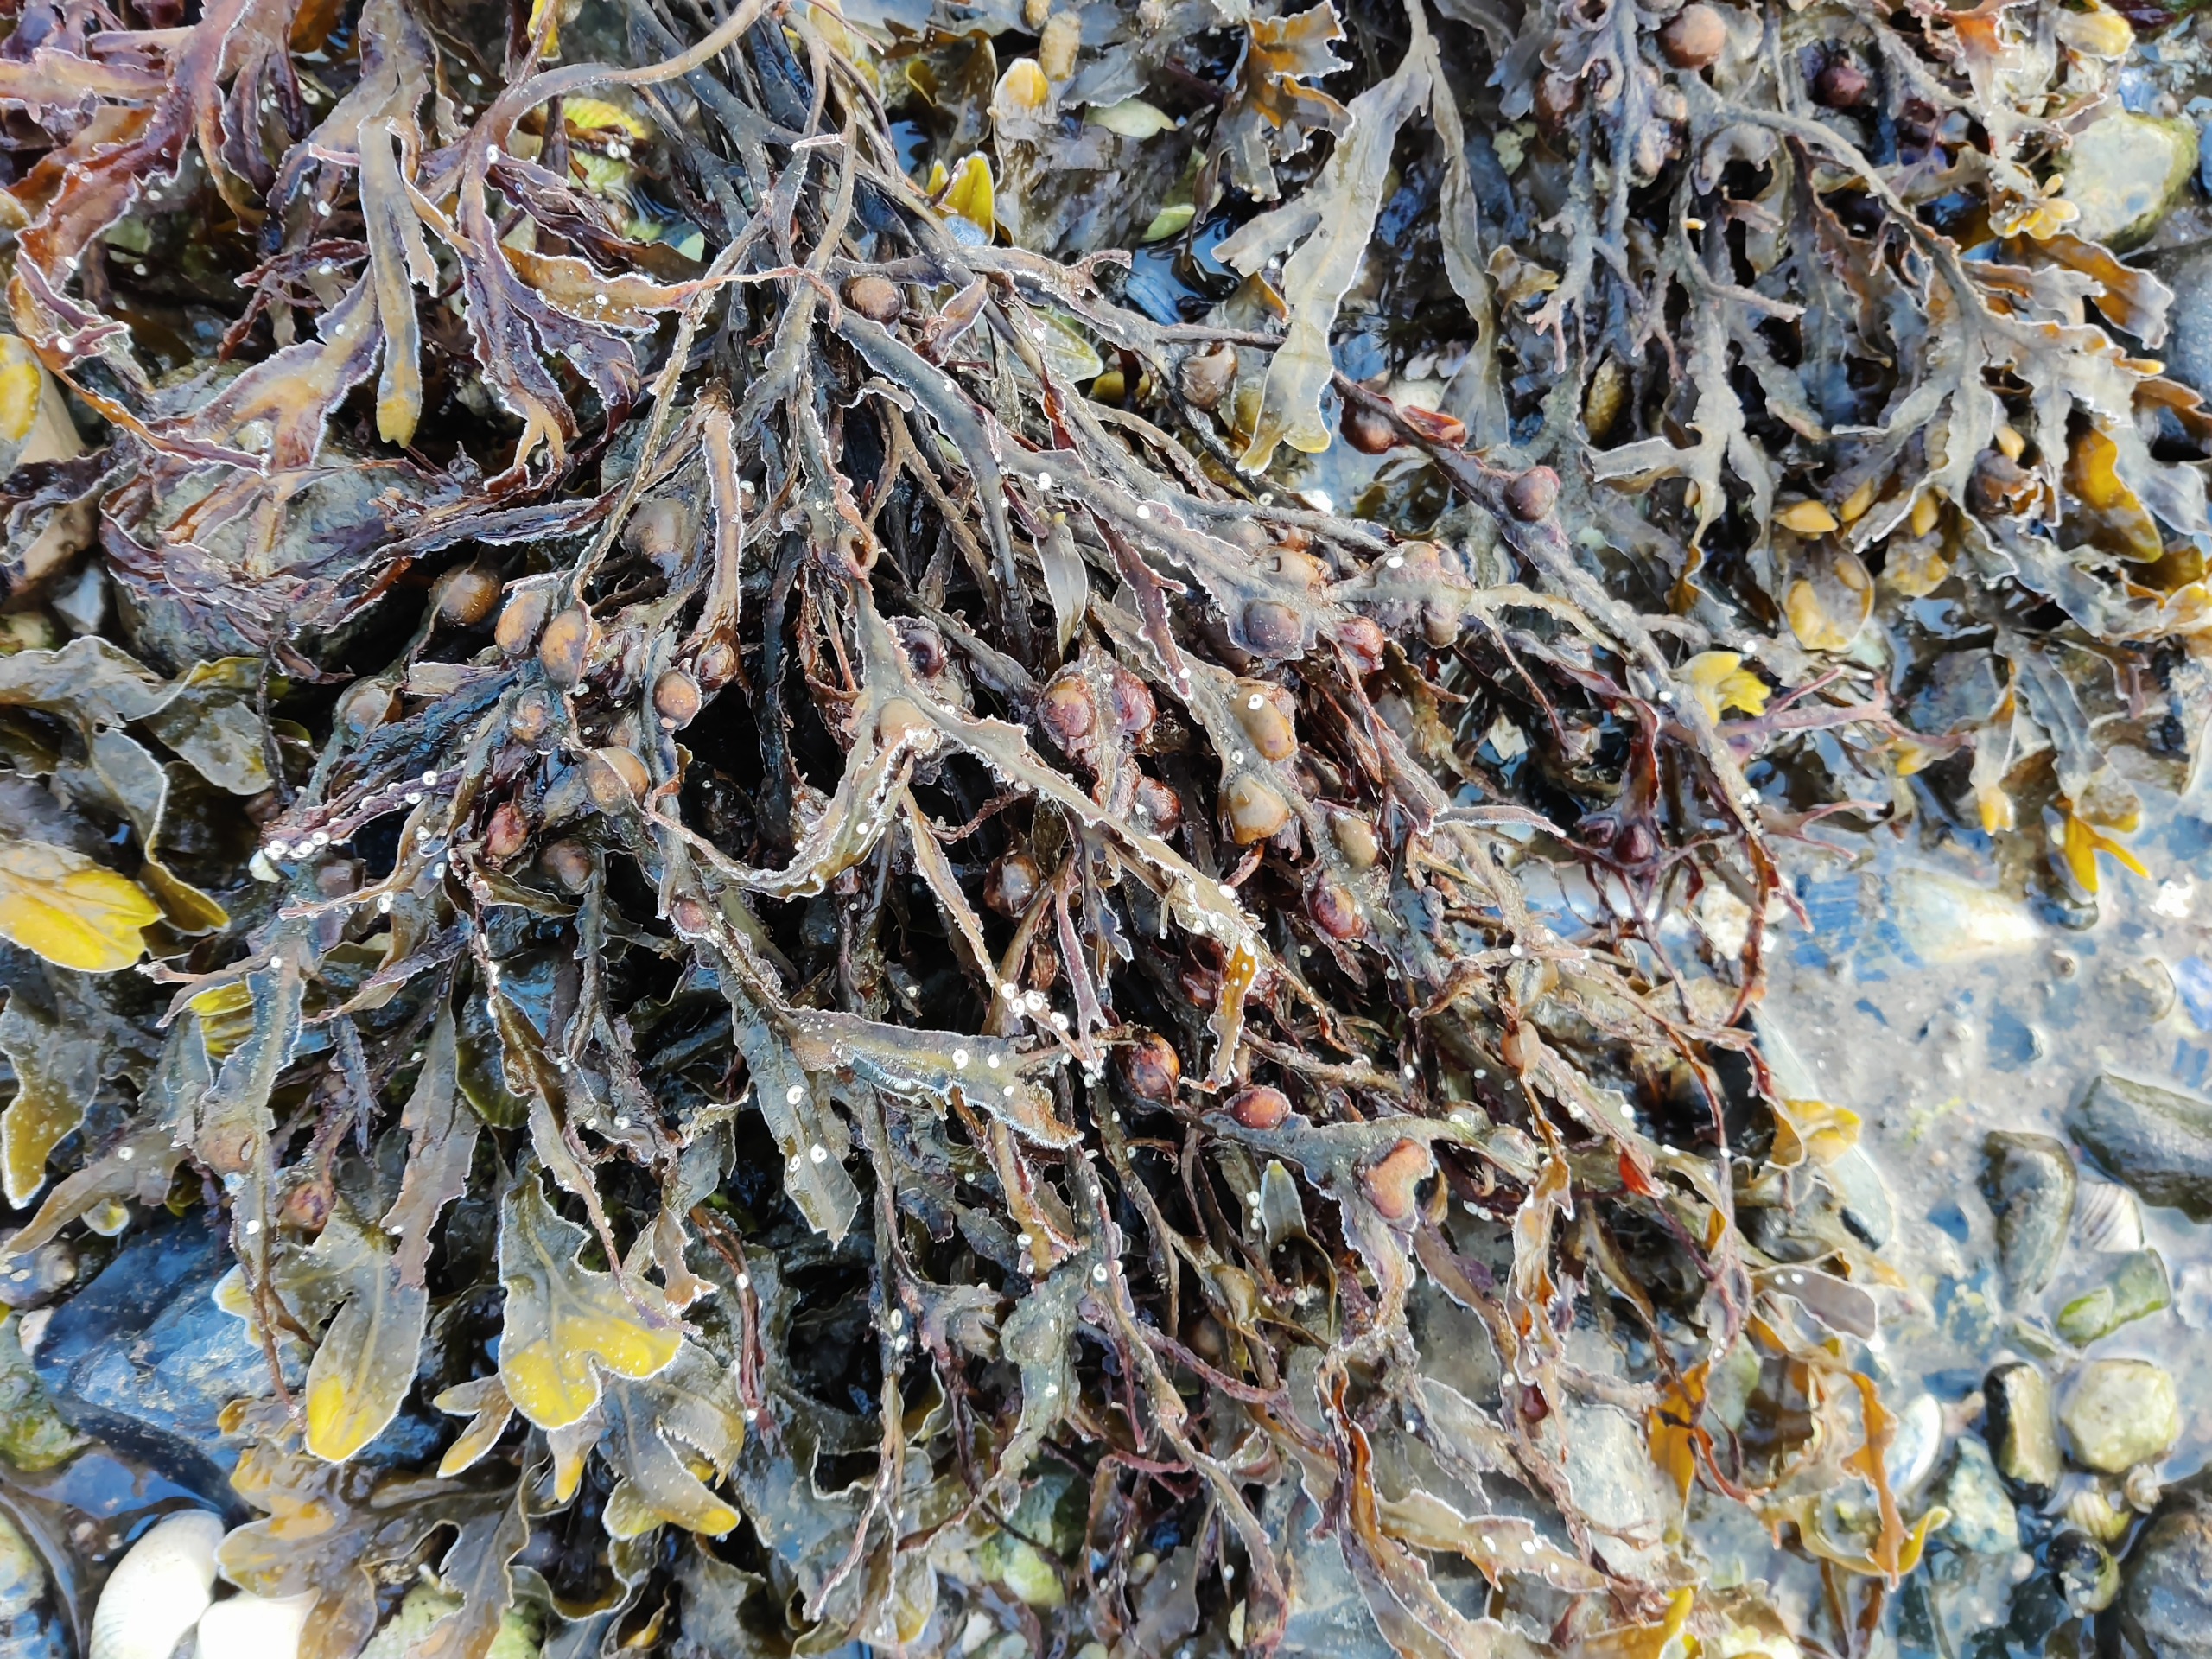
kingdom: Chromista
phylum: Ochrophyta
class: Phaeophyceae
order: Fucales
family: Fucaceae
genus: Fucus
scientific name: Fucus vesiculosus
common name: Blæretang
